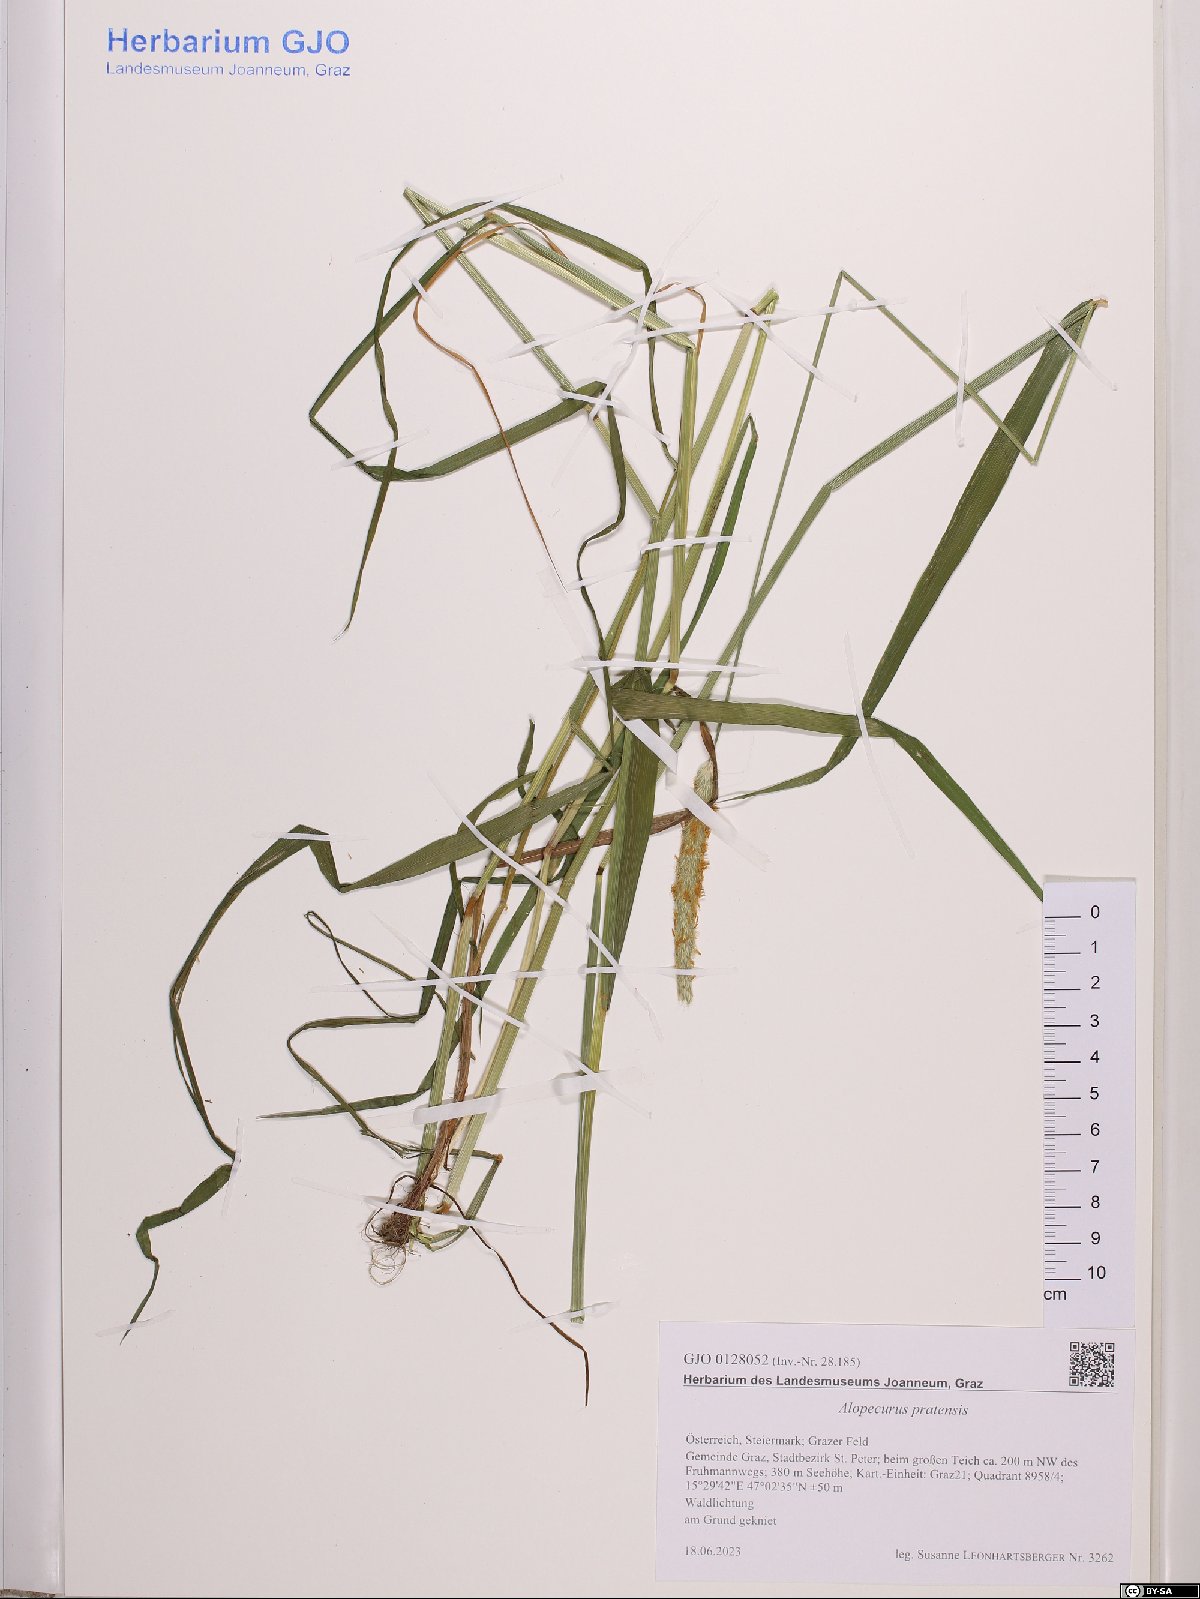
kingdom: Plantae
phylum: Tracheophyta
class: Liliopsida
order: Poales
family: Poaceae
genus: Alopecurus
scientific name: Alopecurus pratensis
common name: Meadow foxtail
